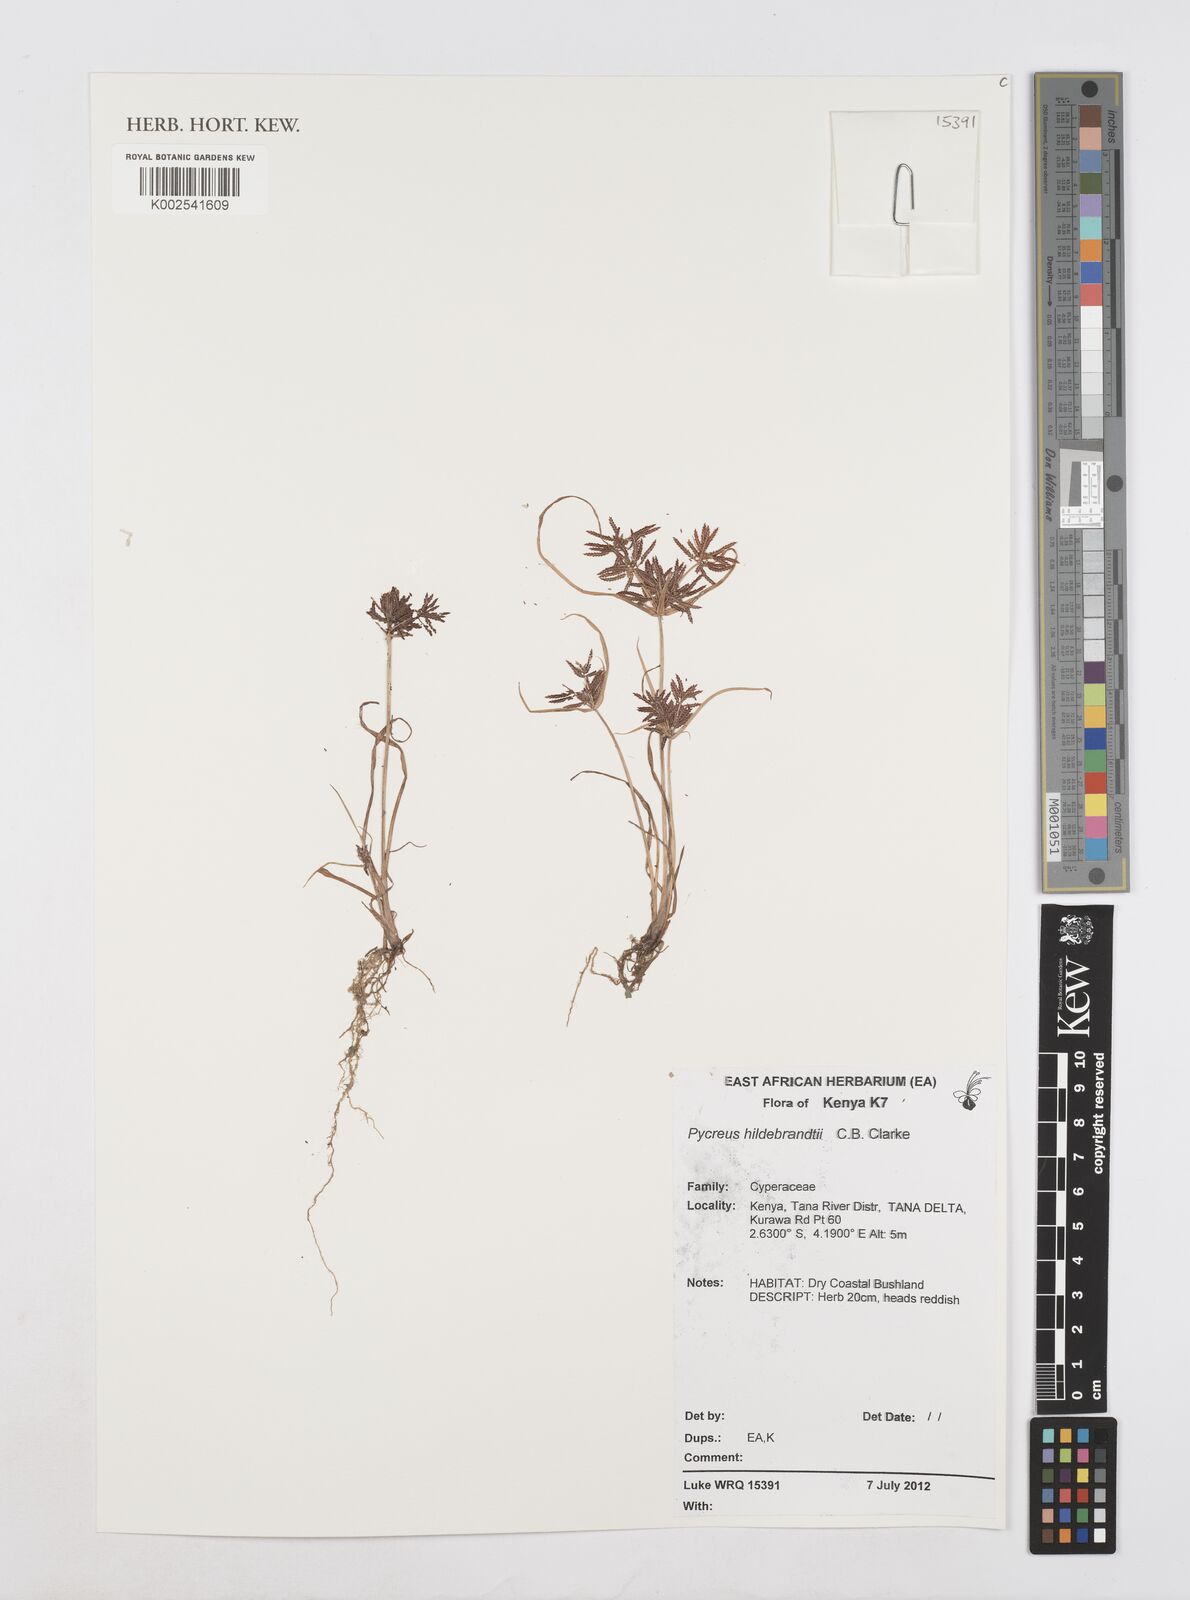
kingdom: Plantae
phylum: Tracheophyta
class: Liliopsida
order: Poales
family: Cyperaceae
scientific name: Cyperaceae
